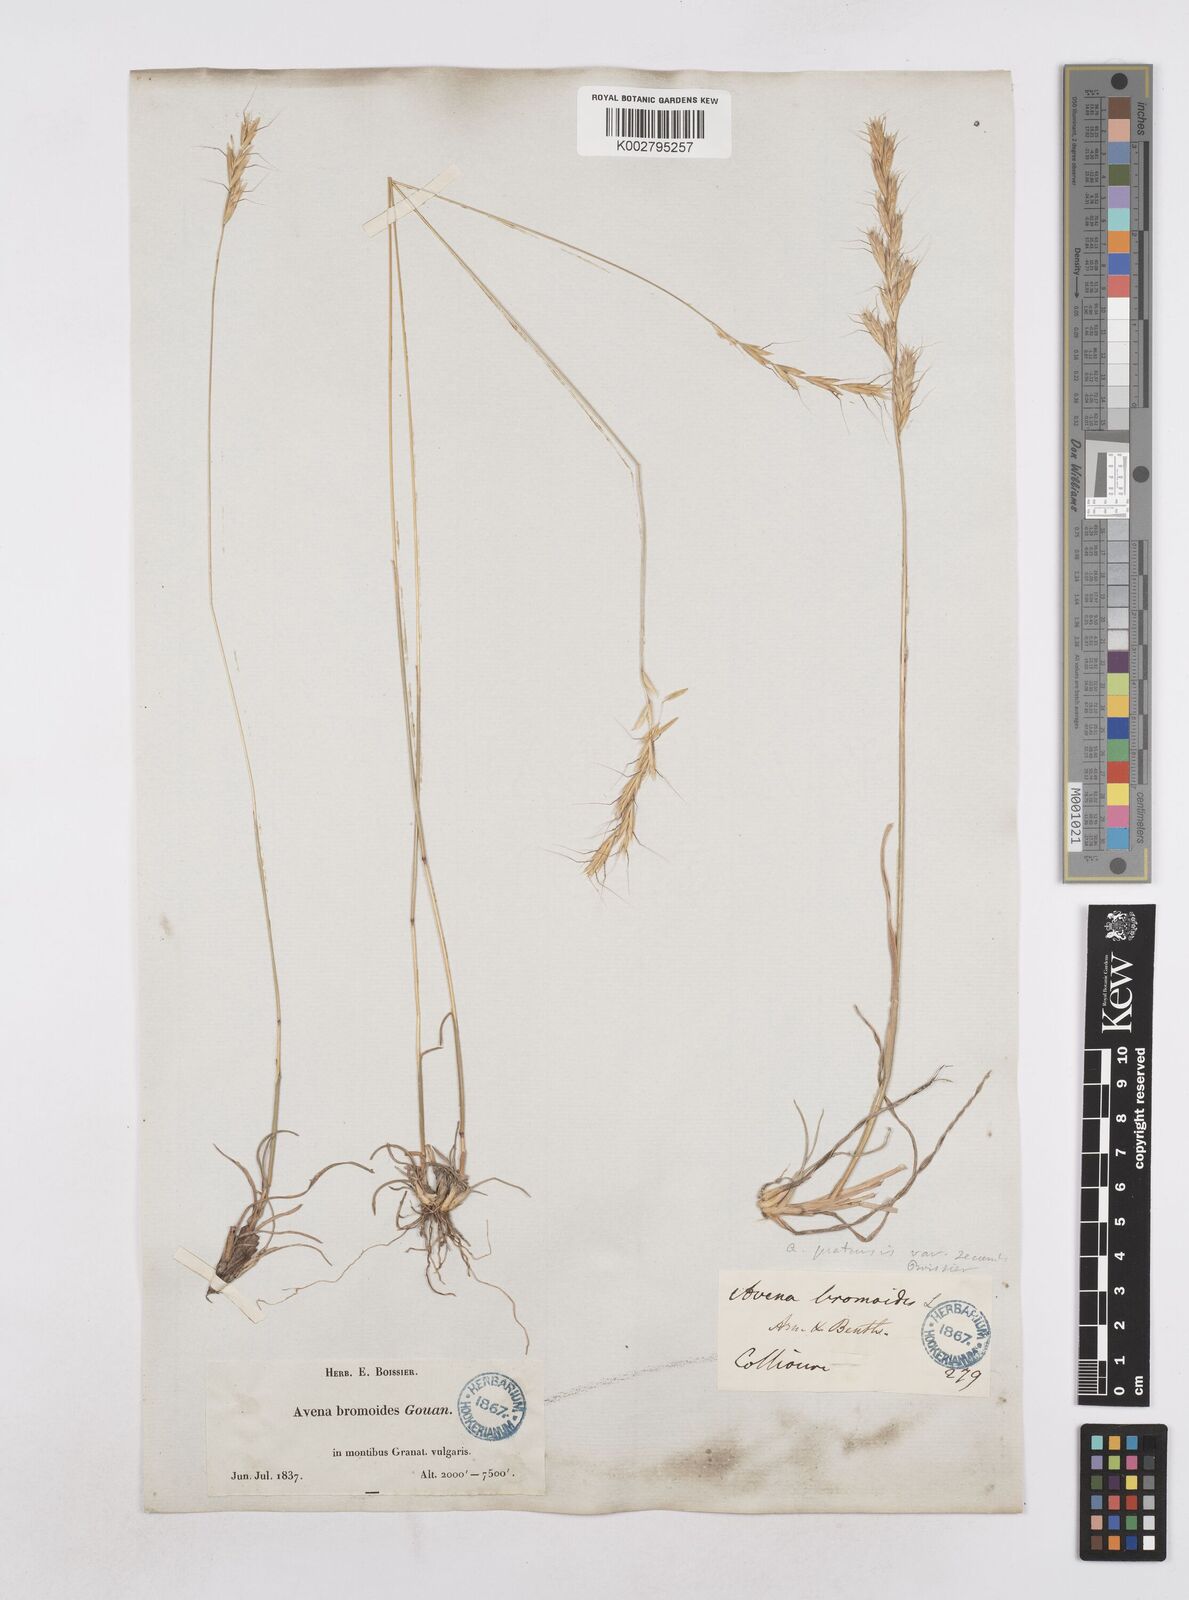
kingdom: Plantae
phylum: Tracheophyta
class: Liliopsida
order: Poales
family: Poaceae
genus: Helictochloa
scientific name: Helictochloa bromoides
